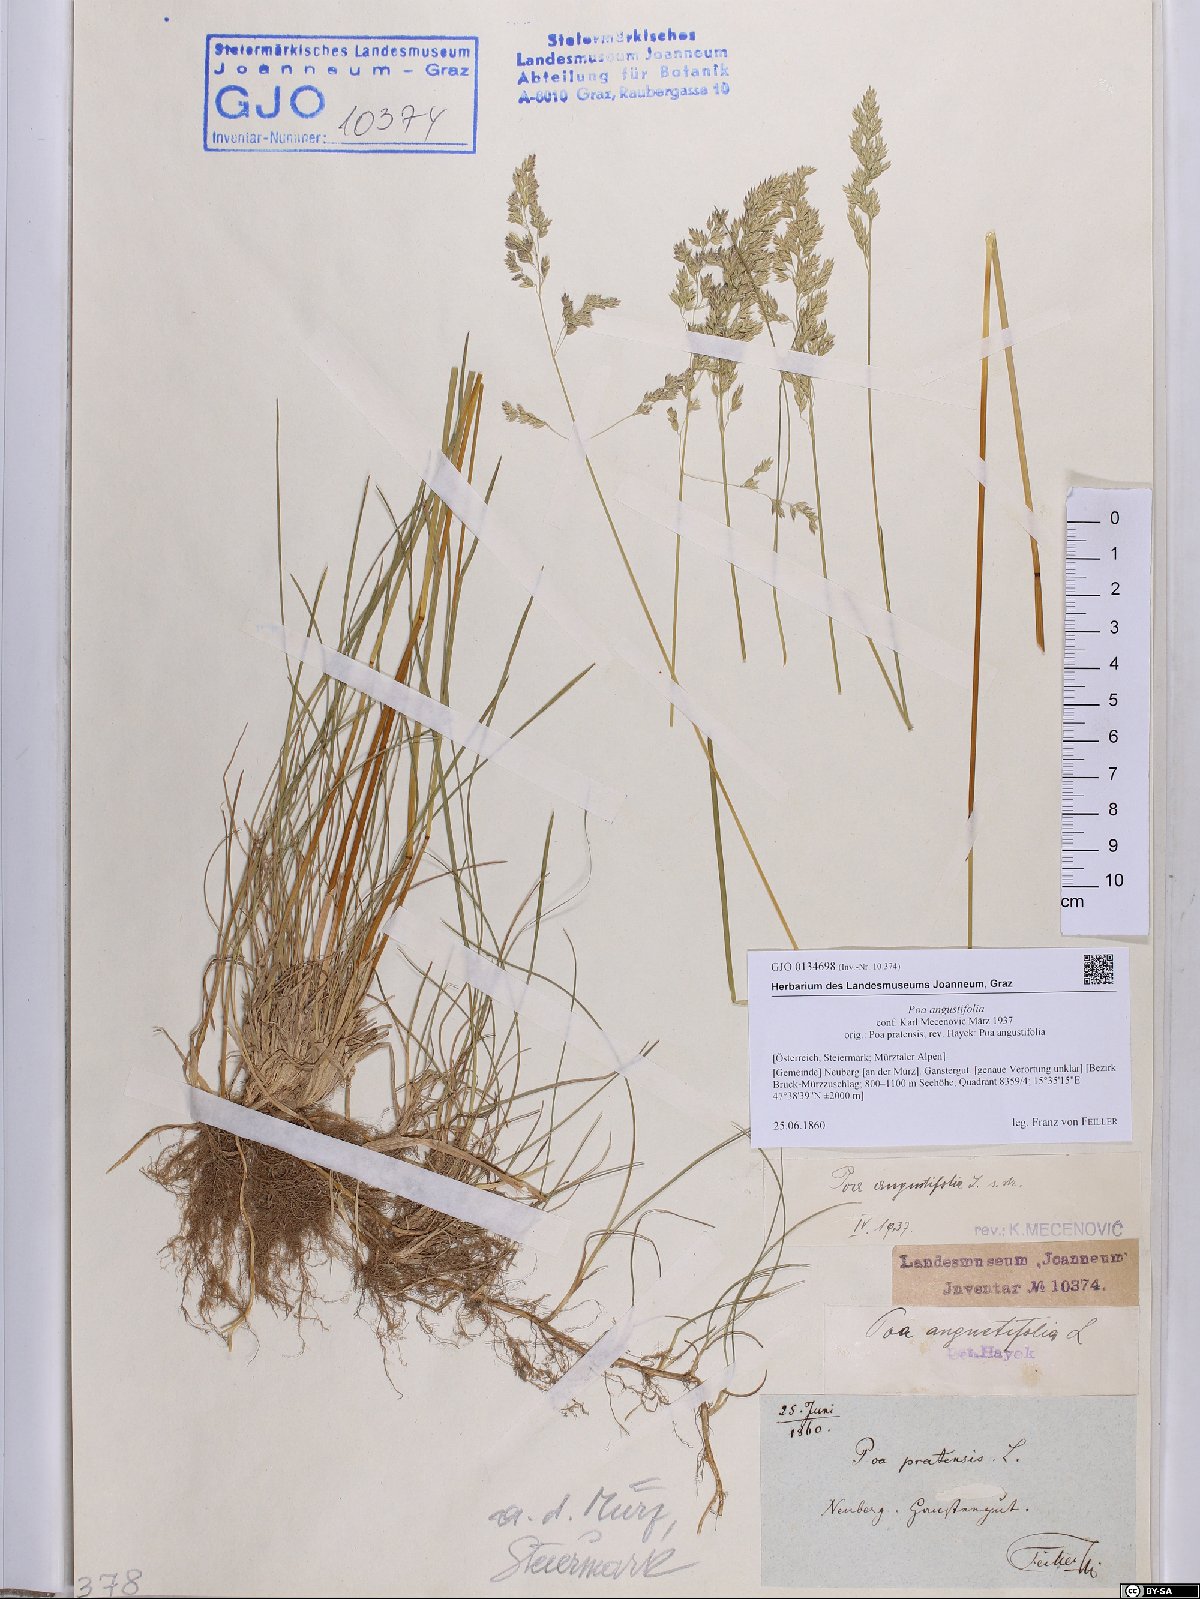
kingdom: Plantae
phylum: Tracheophyta
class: Liliopsida
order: Poales
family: Poaceae
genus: Poa
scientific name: Poa angustifolia
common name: Narrow-leaved meadow-grass
